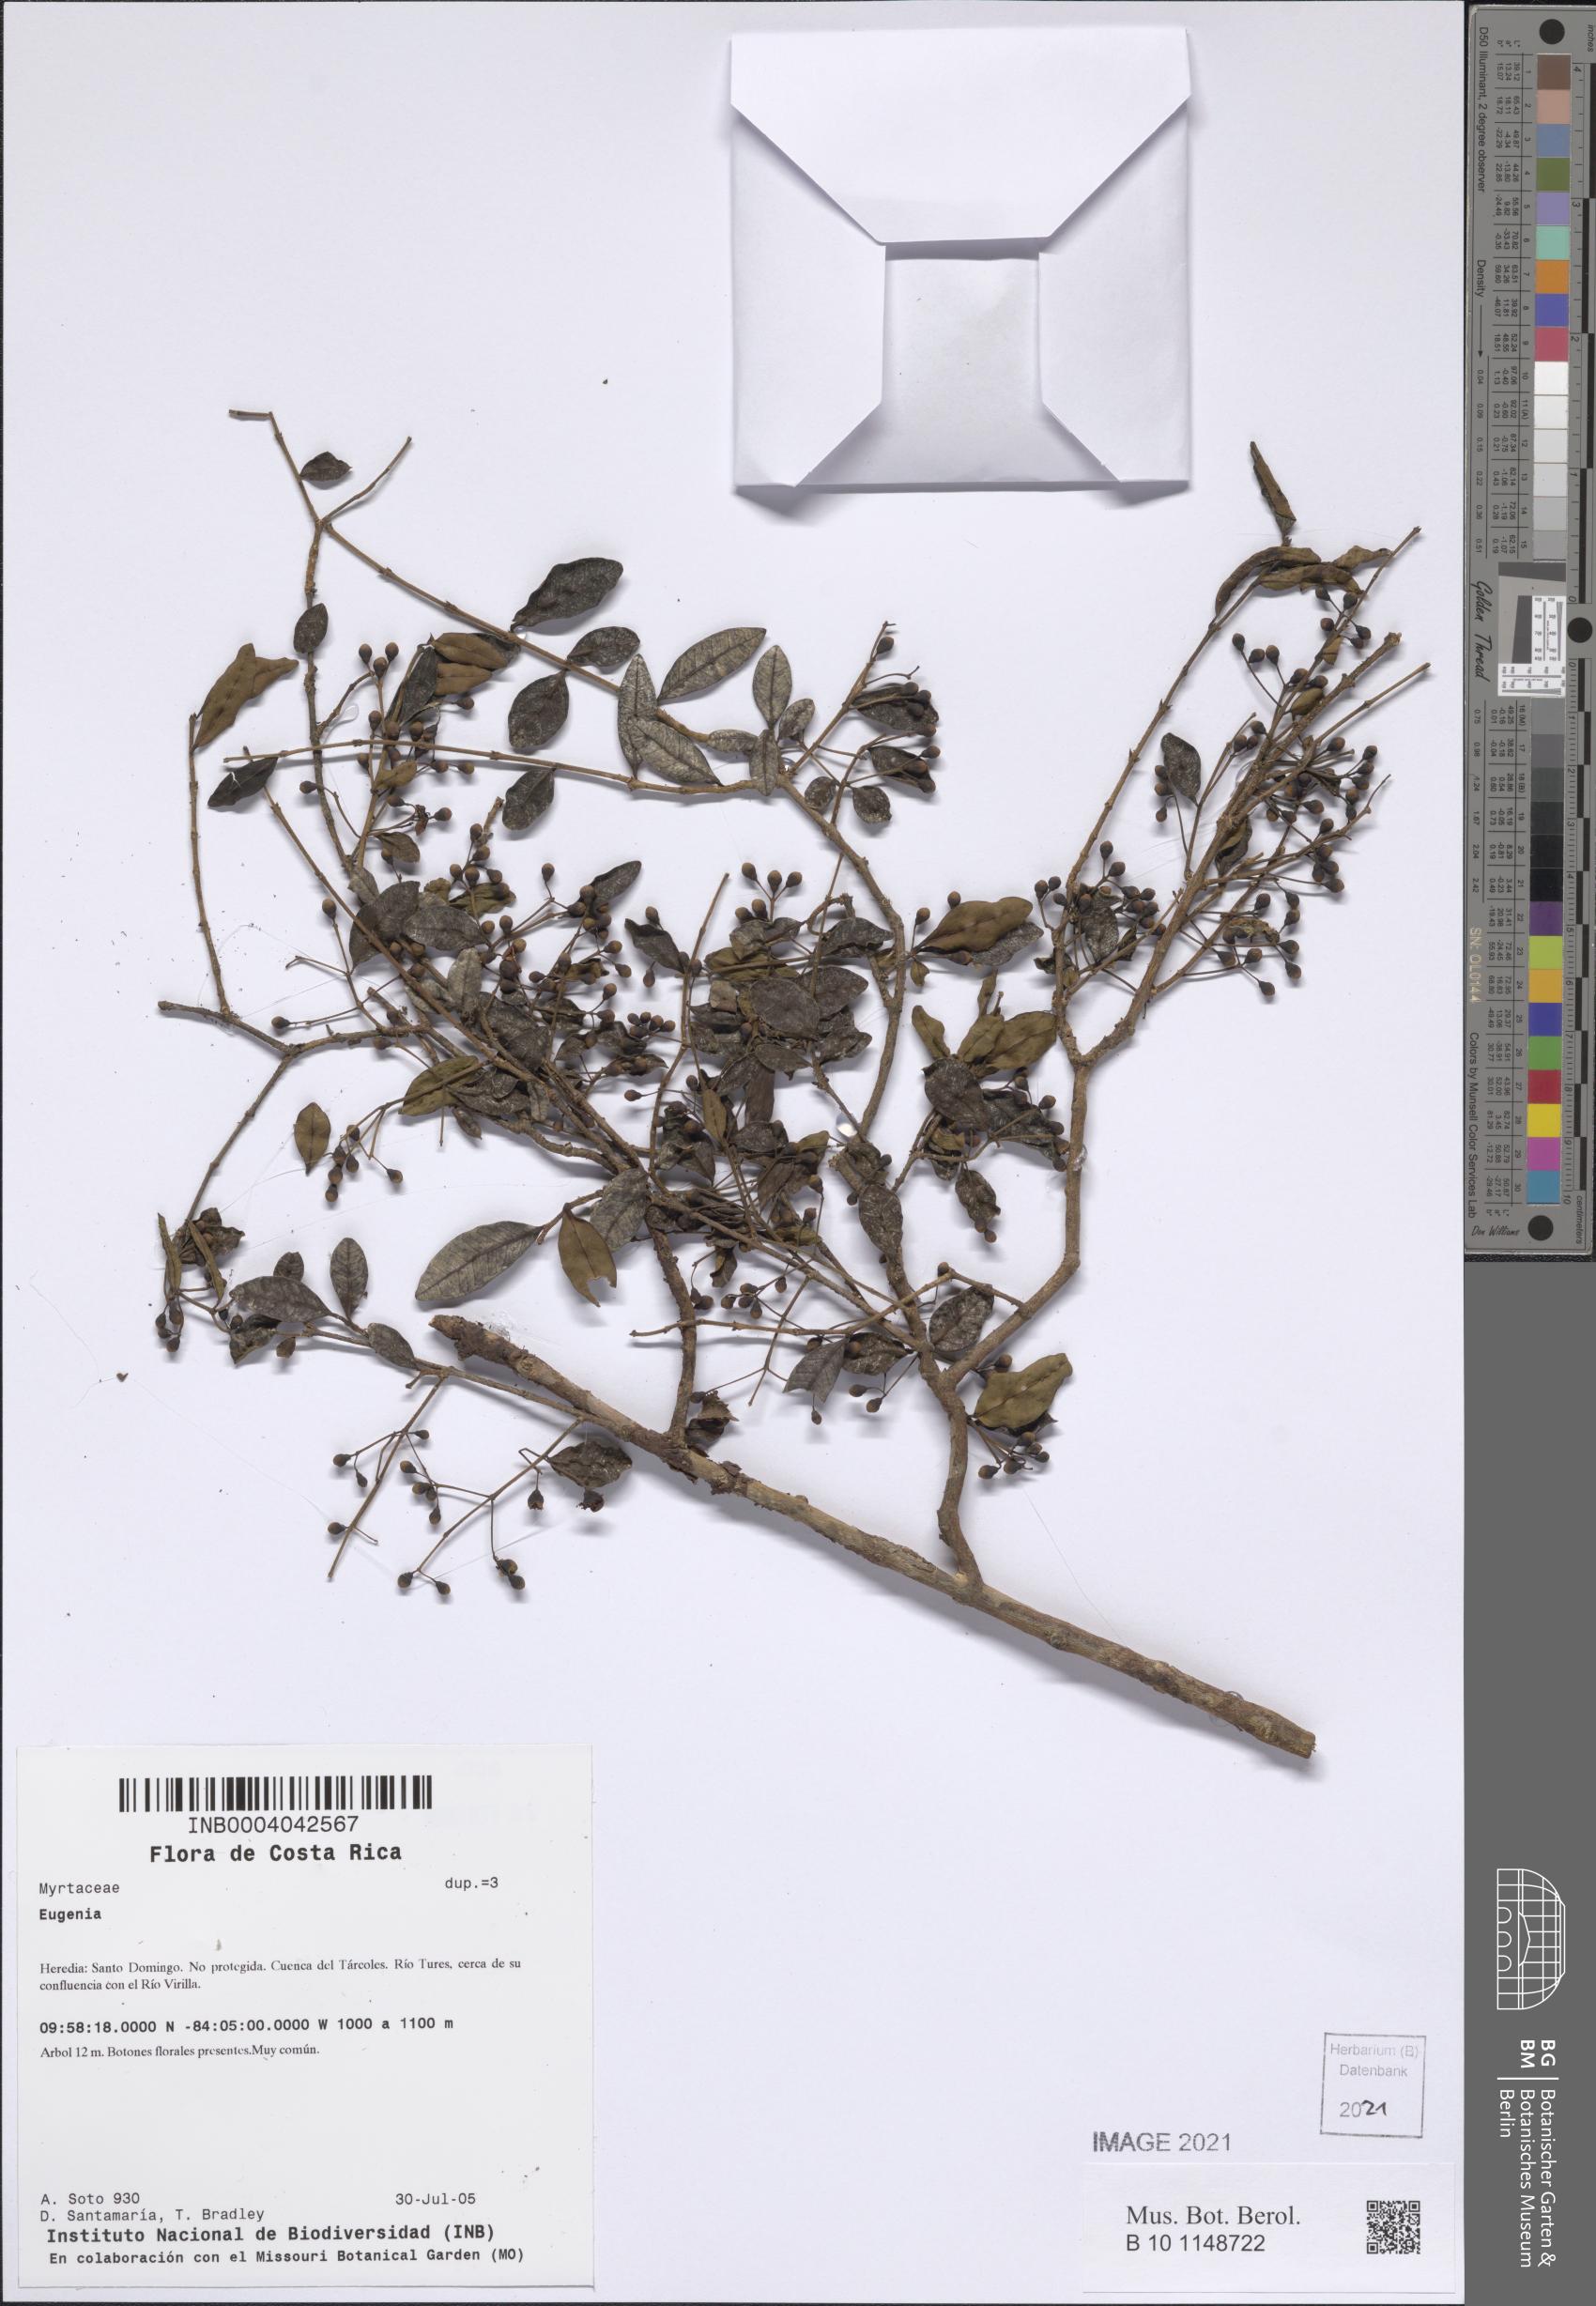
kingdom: Plantae
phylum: Tracheophyta
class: Magnoliopsida
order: Myrtales
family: Myrtaceae
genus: Eugenia
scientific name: Eugenia
